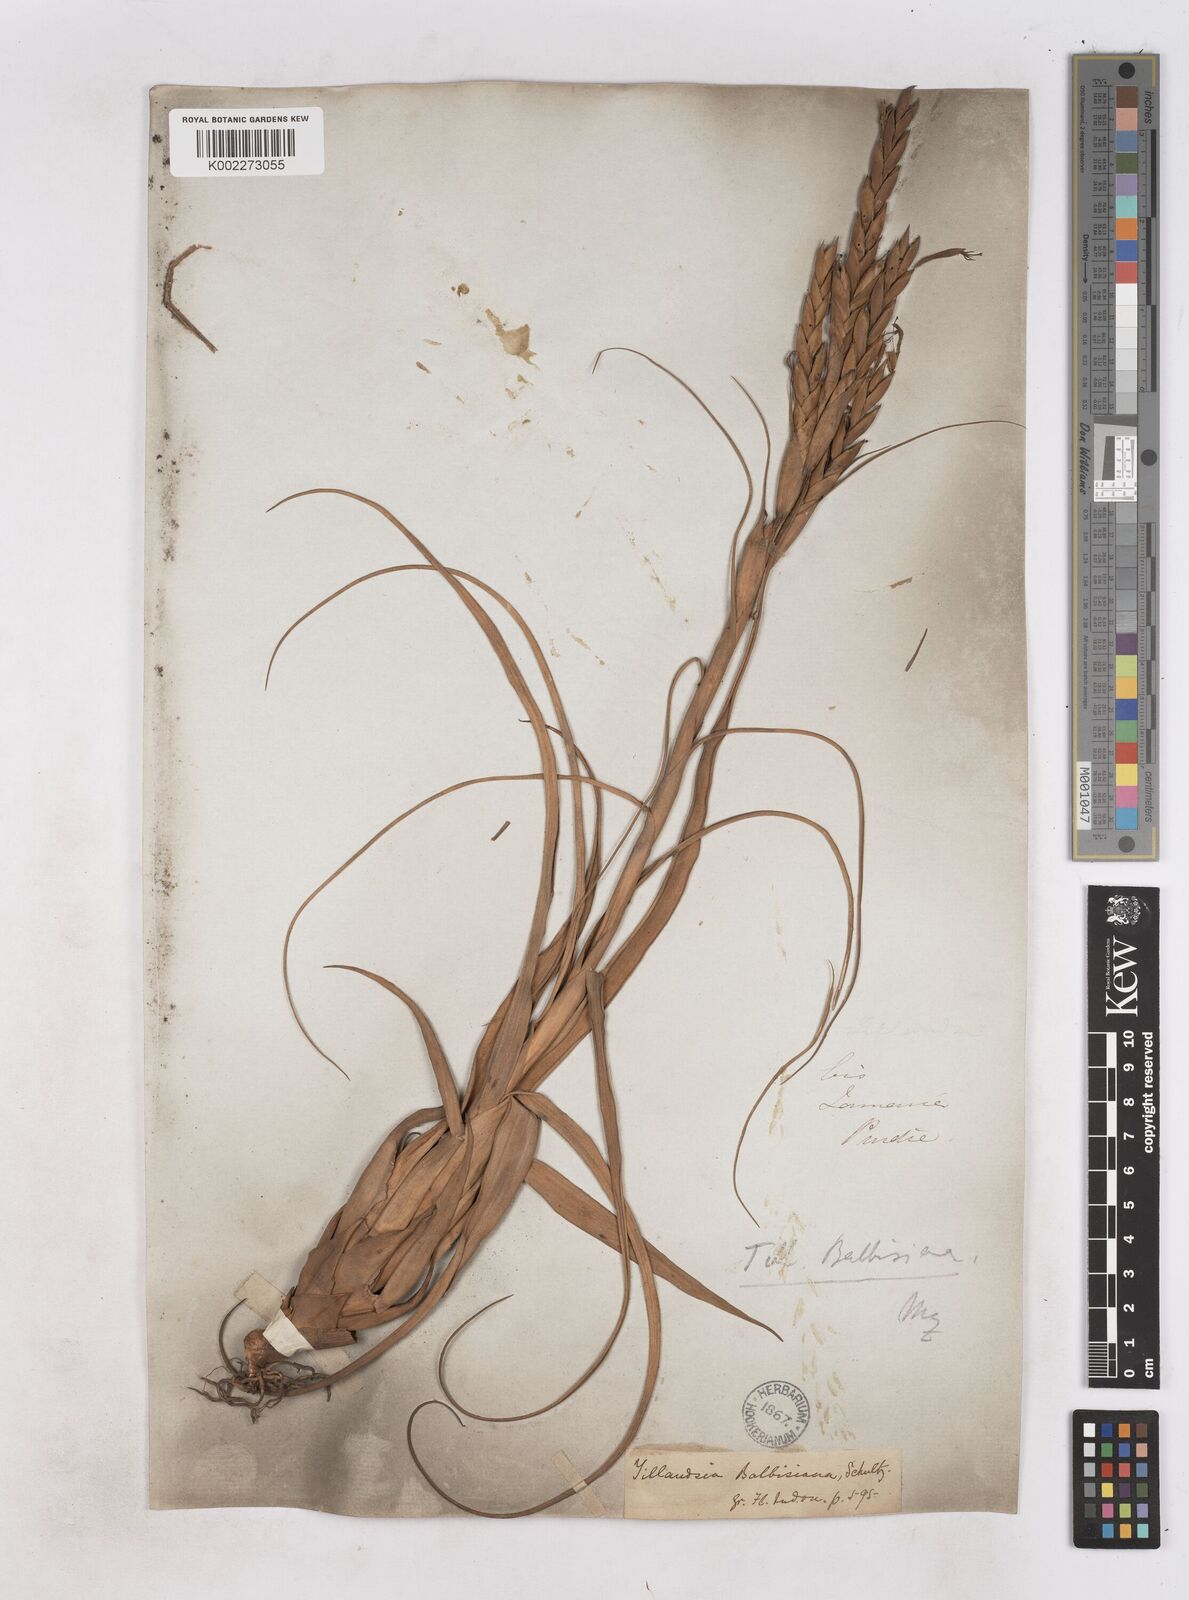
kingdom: Plantae
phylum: Tracheophyta
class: Liliopsida
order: Poales
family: Bromeliaceae
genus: Tillandsia
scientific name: Tillandsia balbisiana
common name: Northern needleleaf
